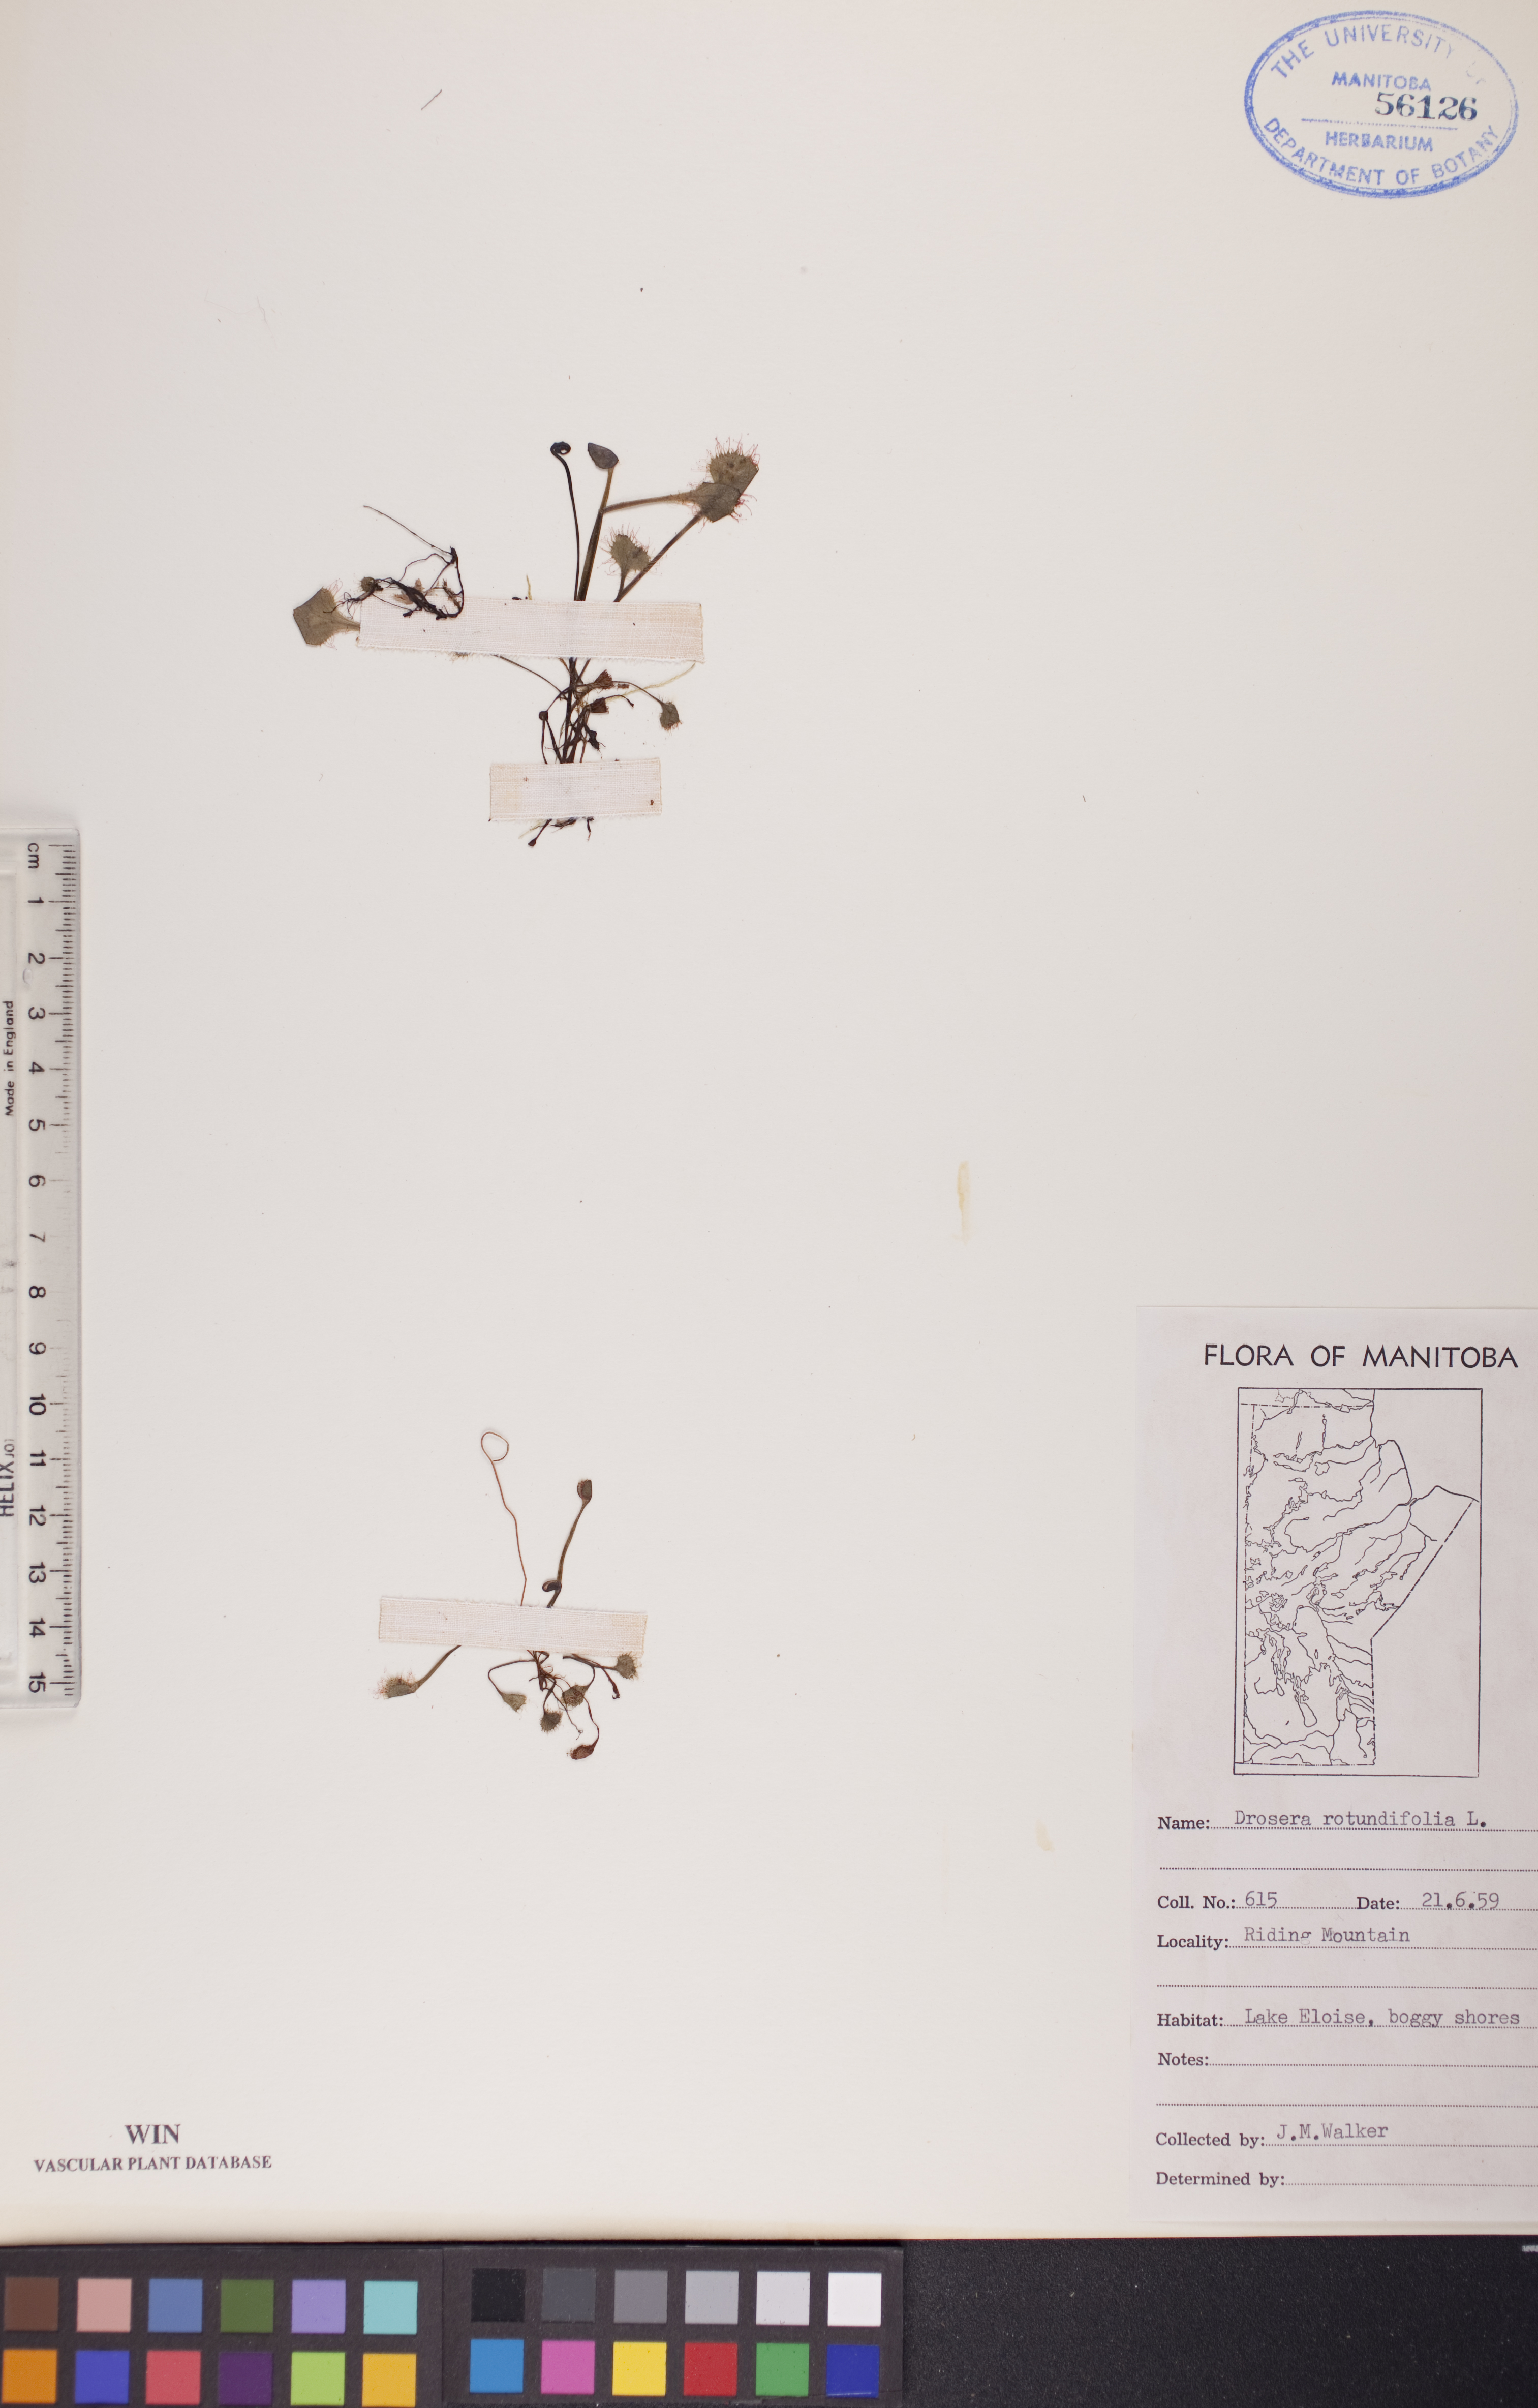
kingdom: Plantae
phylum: Tracheophyta
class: Magnoliopsida
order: Caryophyllales
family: Droseraceae
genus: Drosera
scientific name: Drosera rotundifolia
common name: Round-leaved sundew
